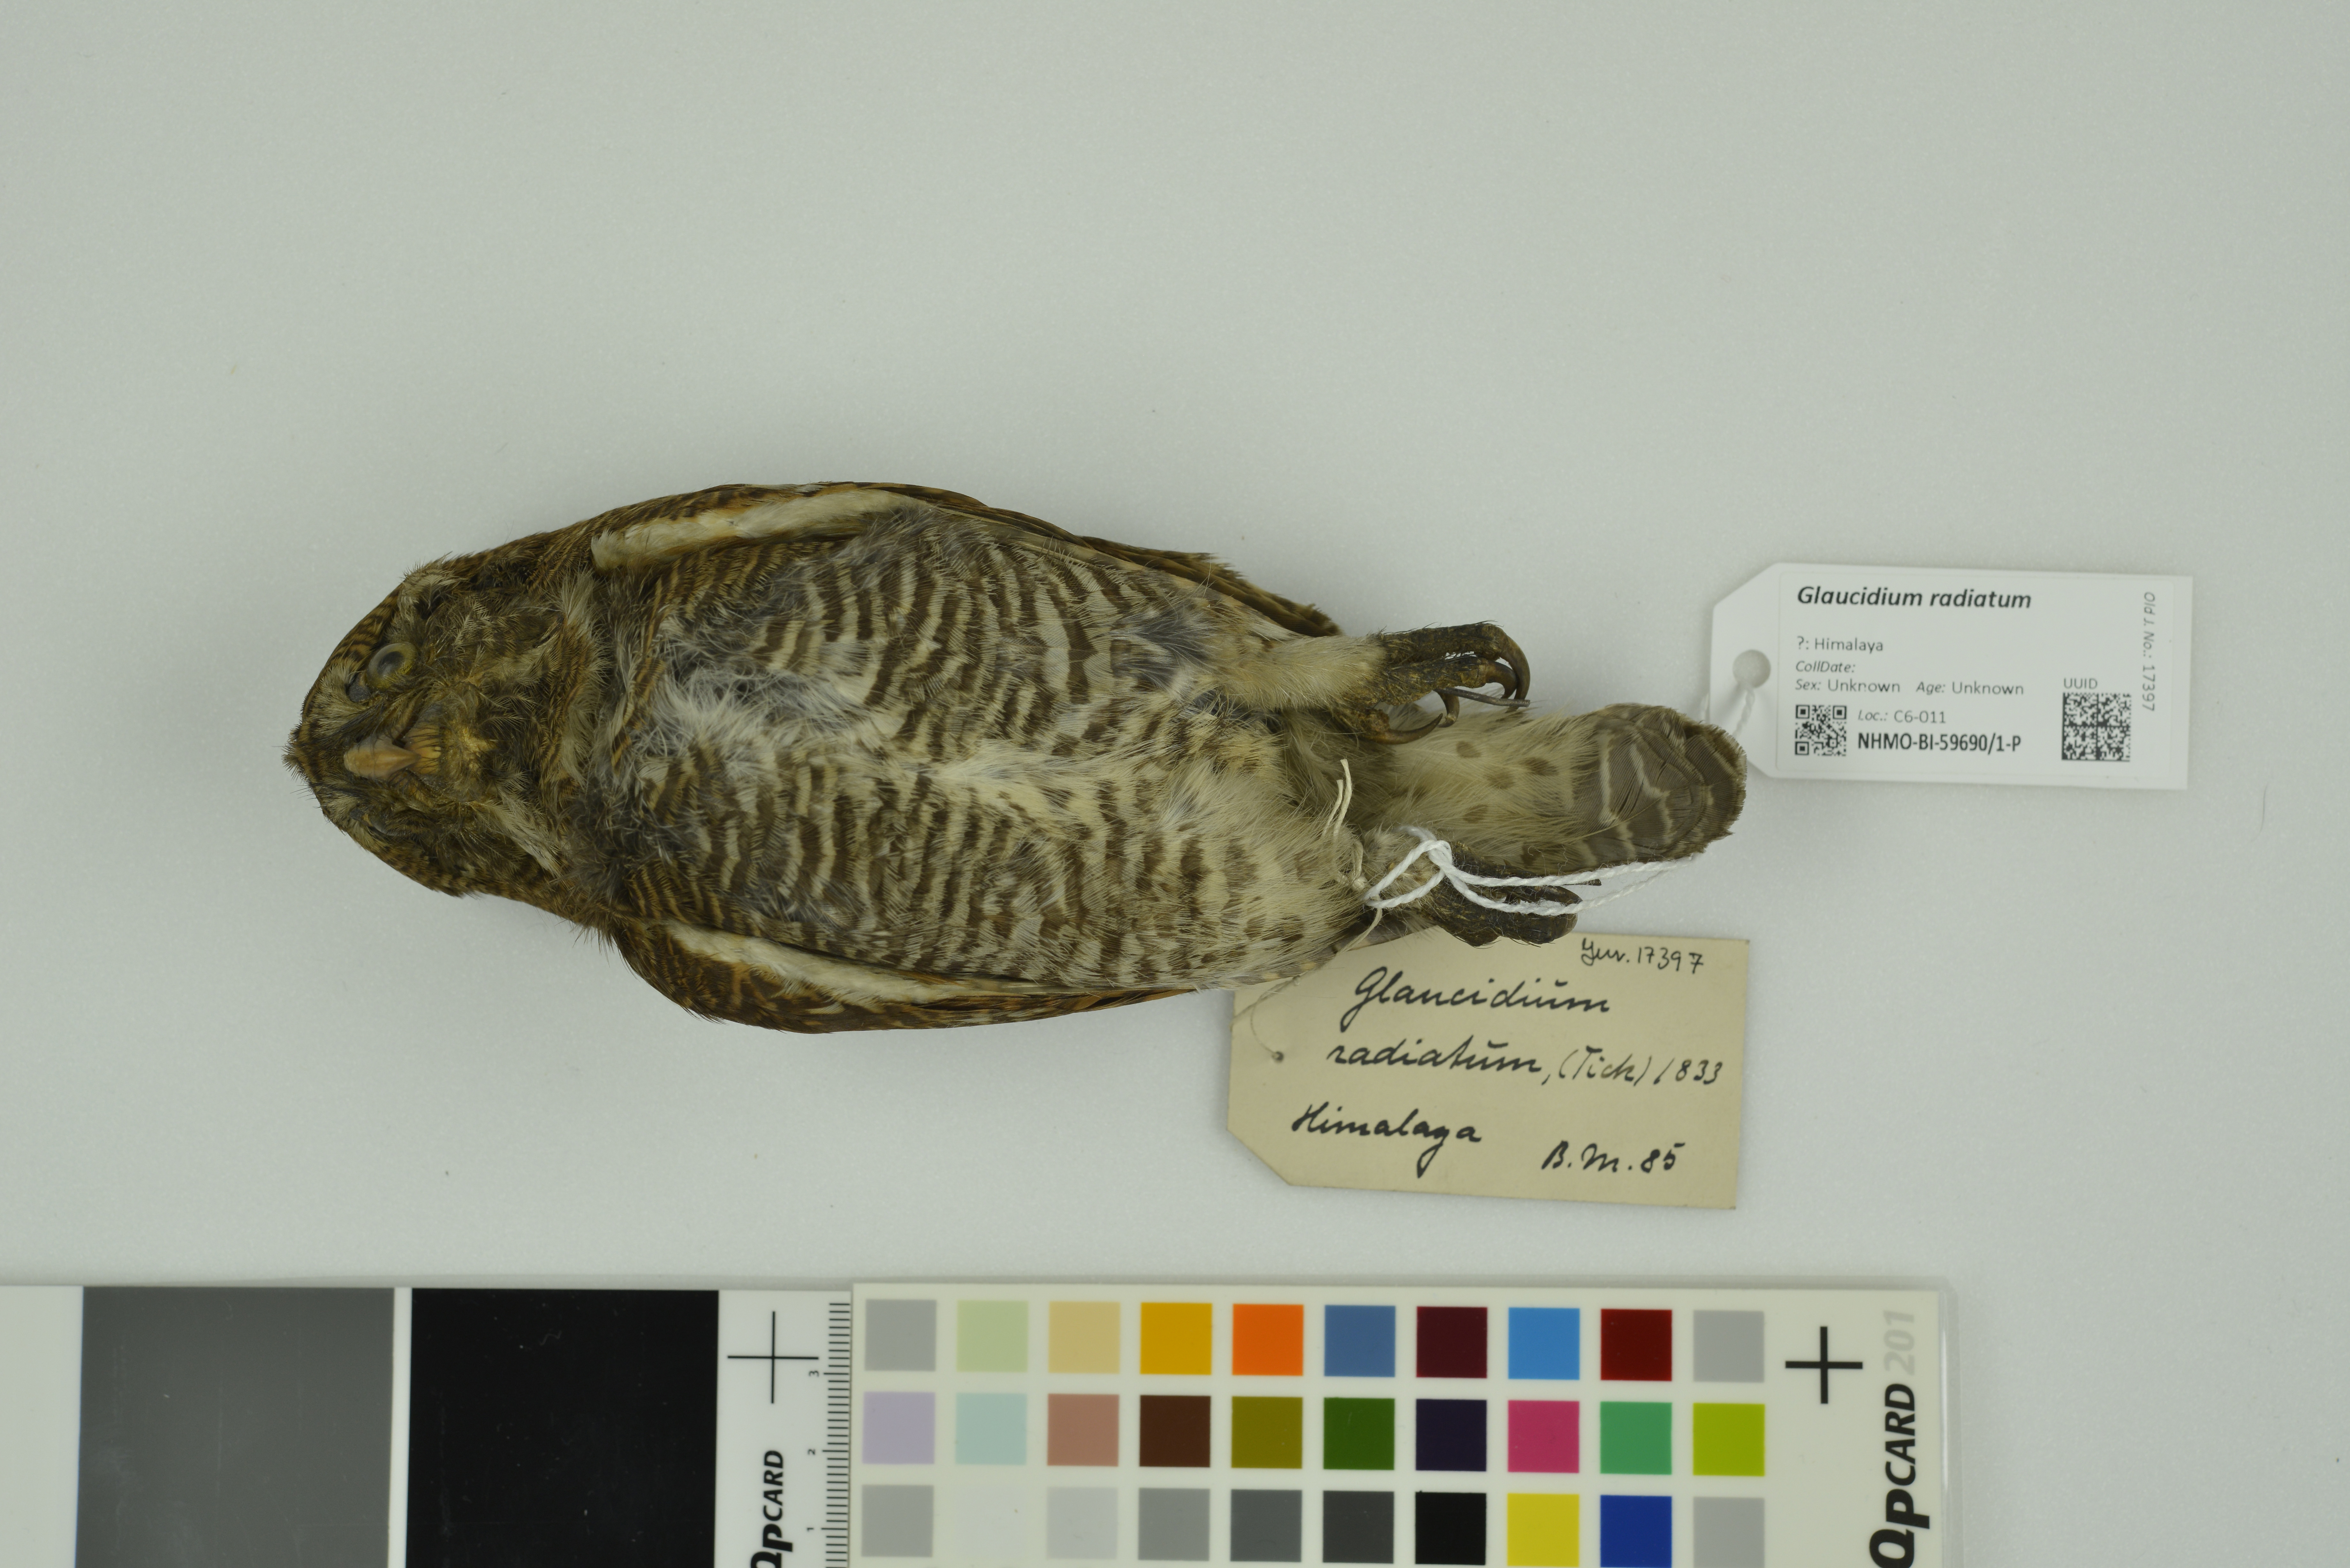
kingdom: Animalia
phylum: Chordata
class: Aves
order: Strigiformes
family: Strigidae
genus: Glaucidium
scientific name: Glaucidium radiatum
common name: Jungle owlet
